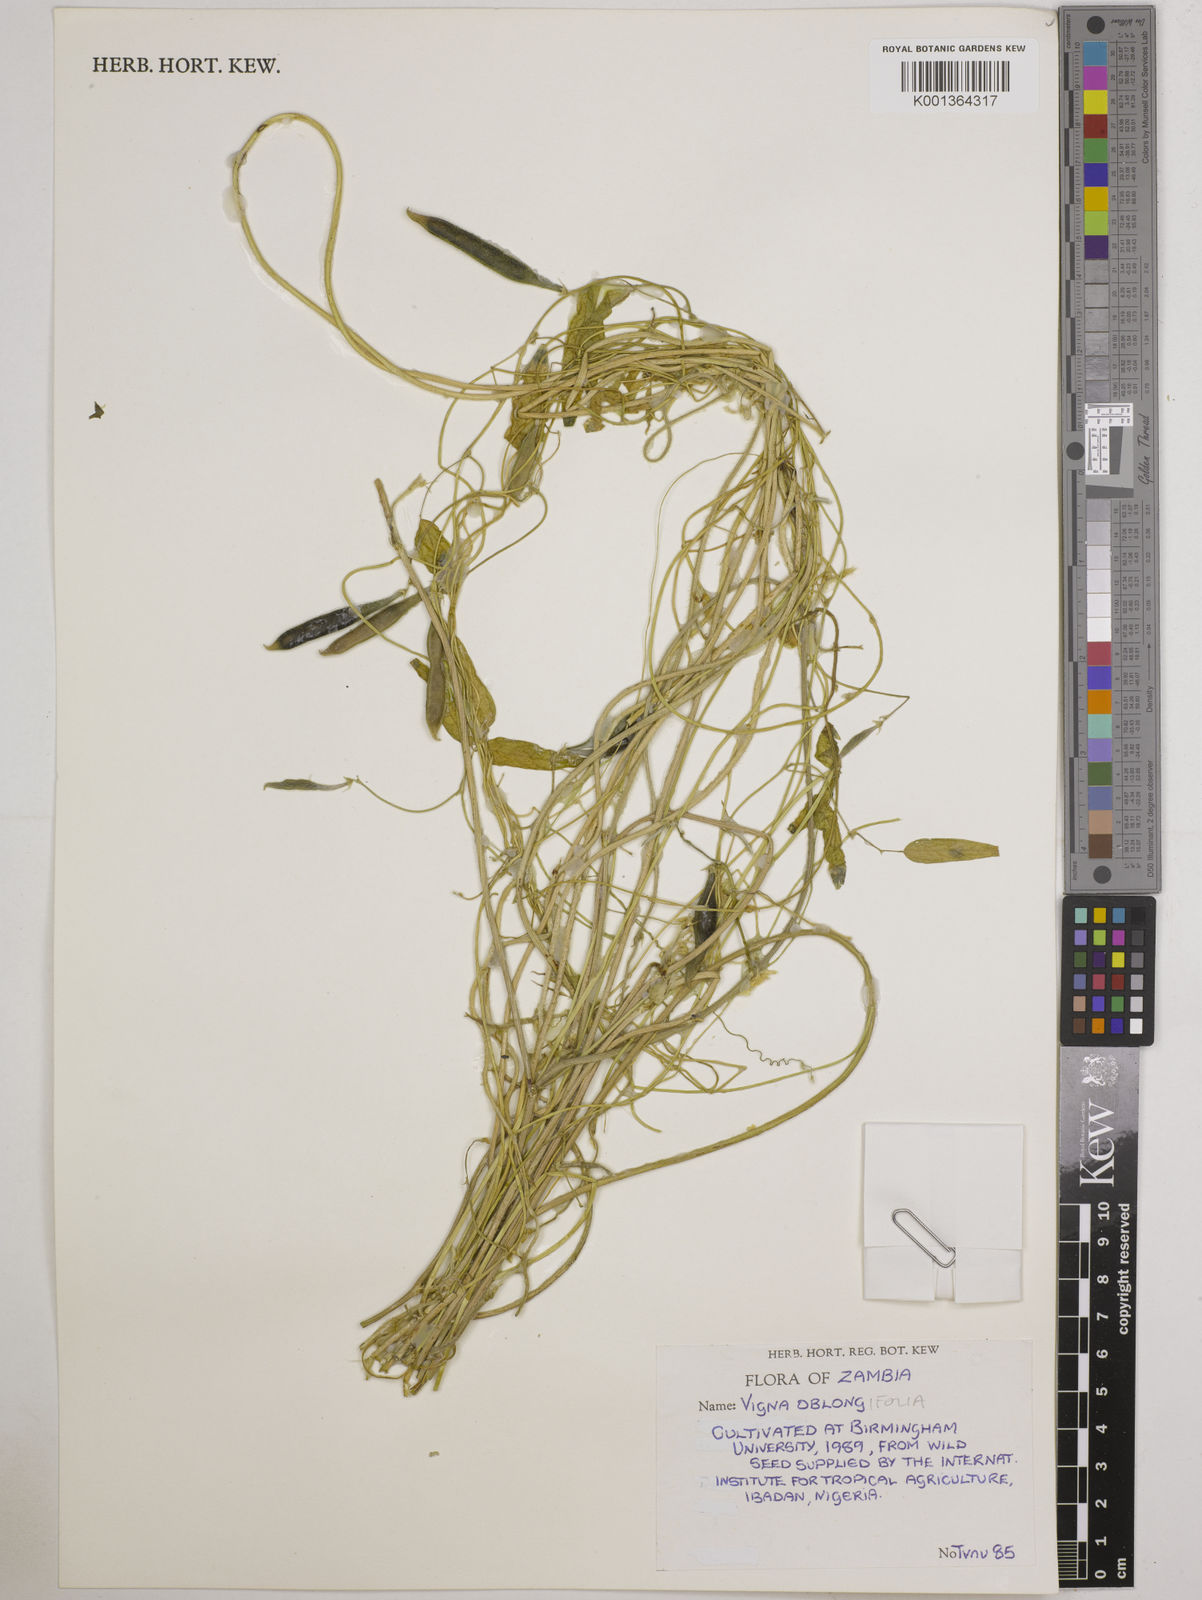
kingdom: Plantae
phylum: Tracheophyta
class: Magnoliopsida
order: Fabales
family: Fabaceae
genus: Vigna
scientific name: Vigna
